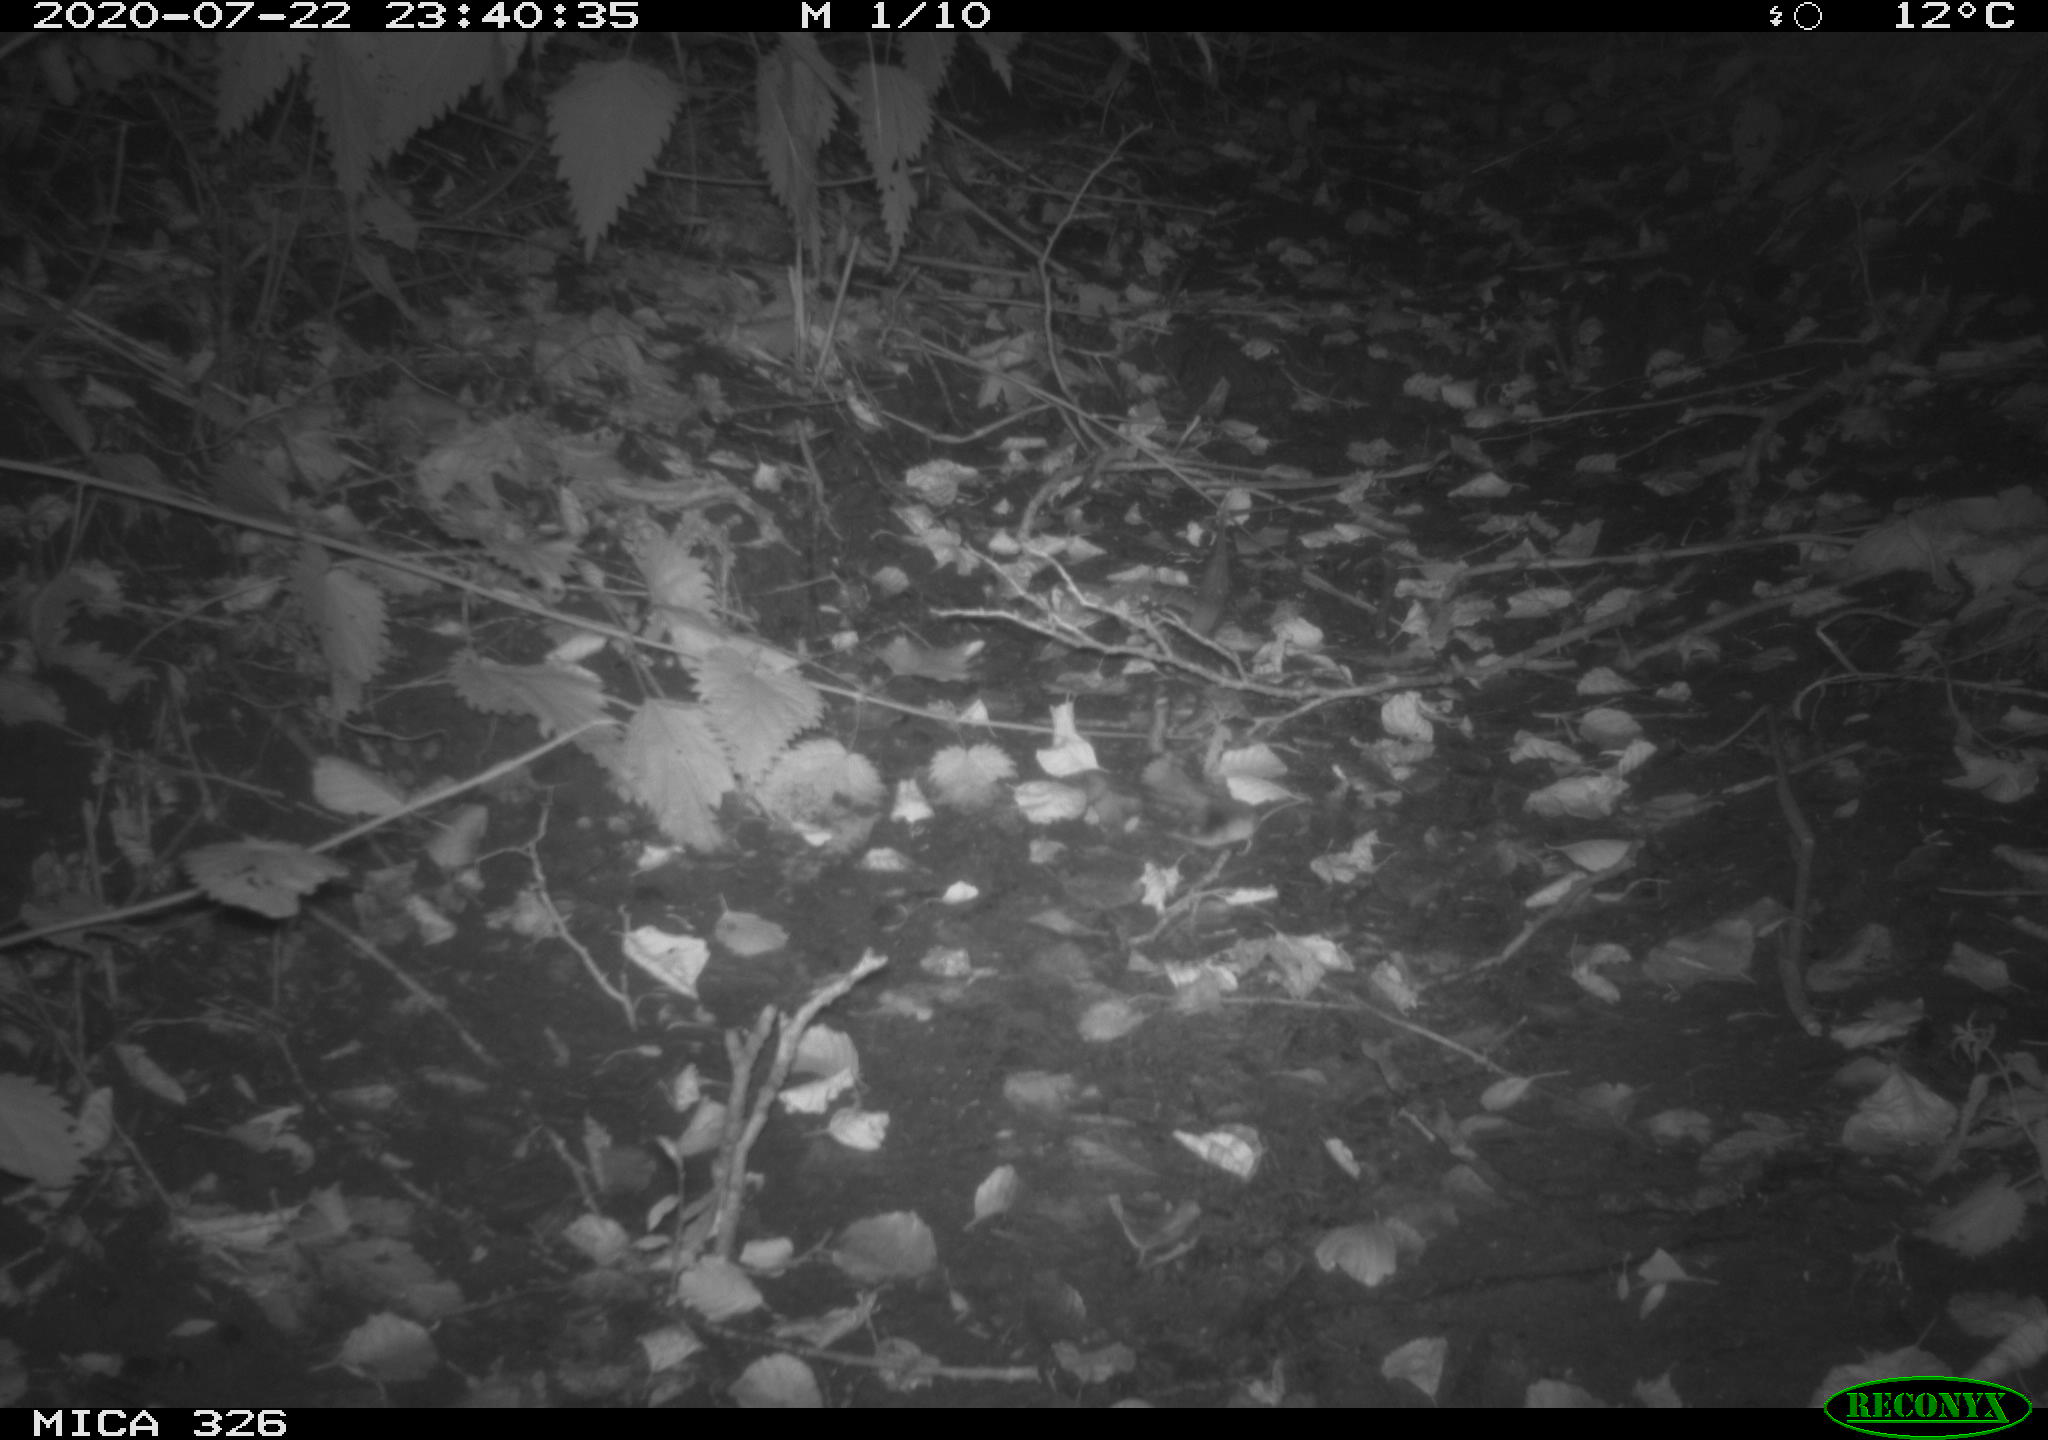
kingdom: Animalia
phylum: Chordata
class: Mammalia
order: Rodentia
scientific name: Rodentia
